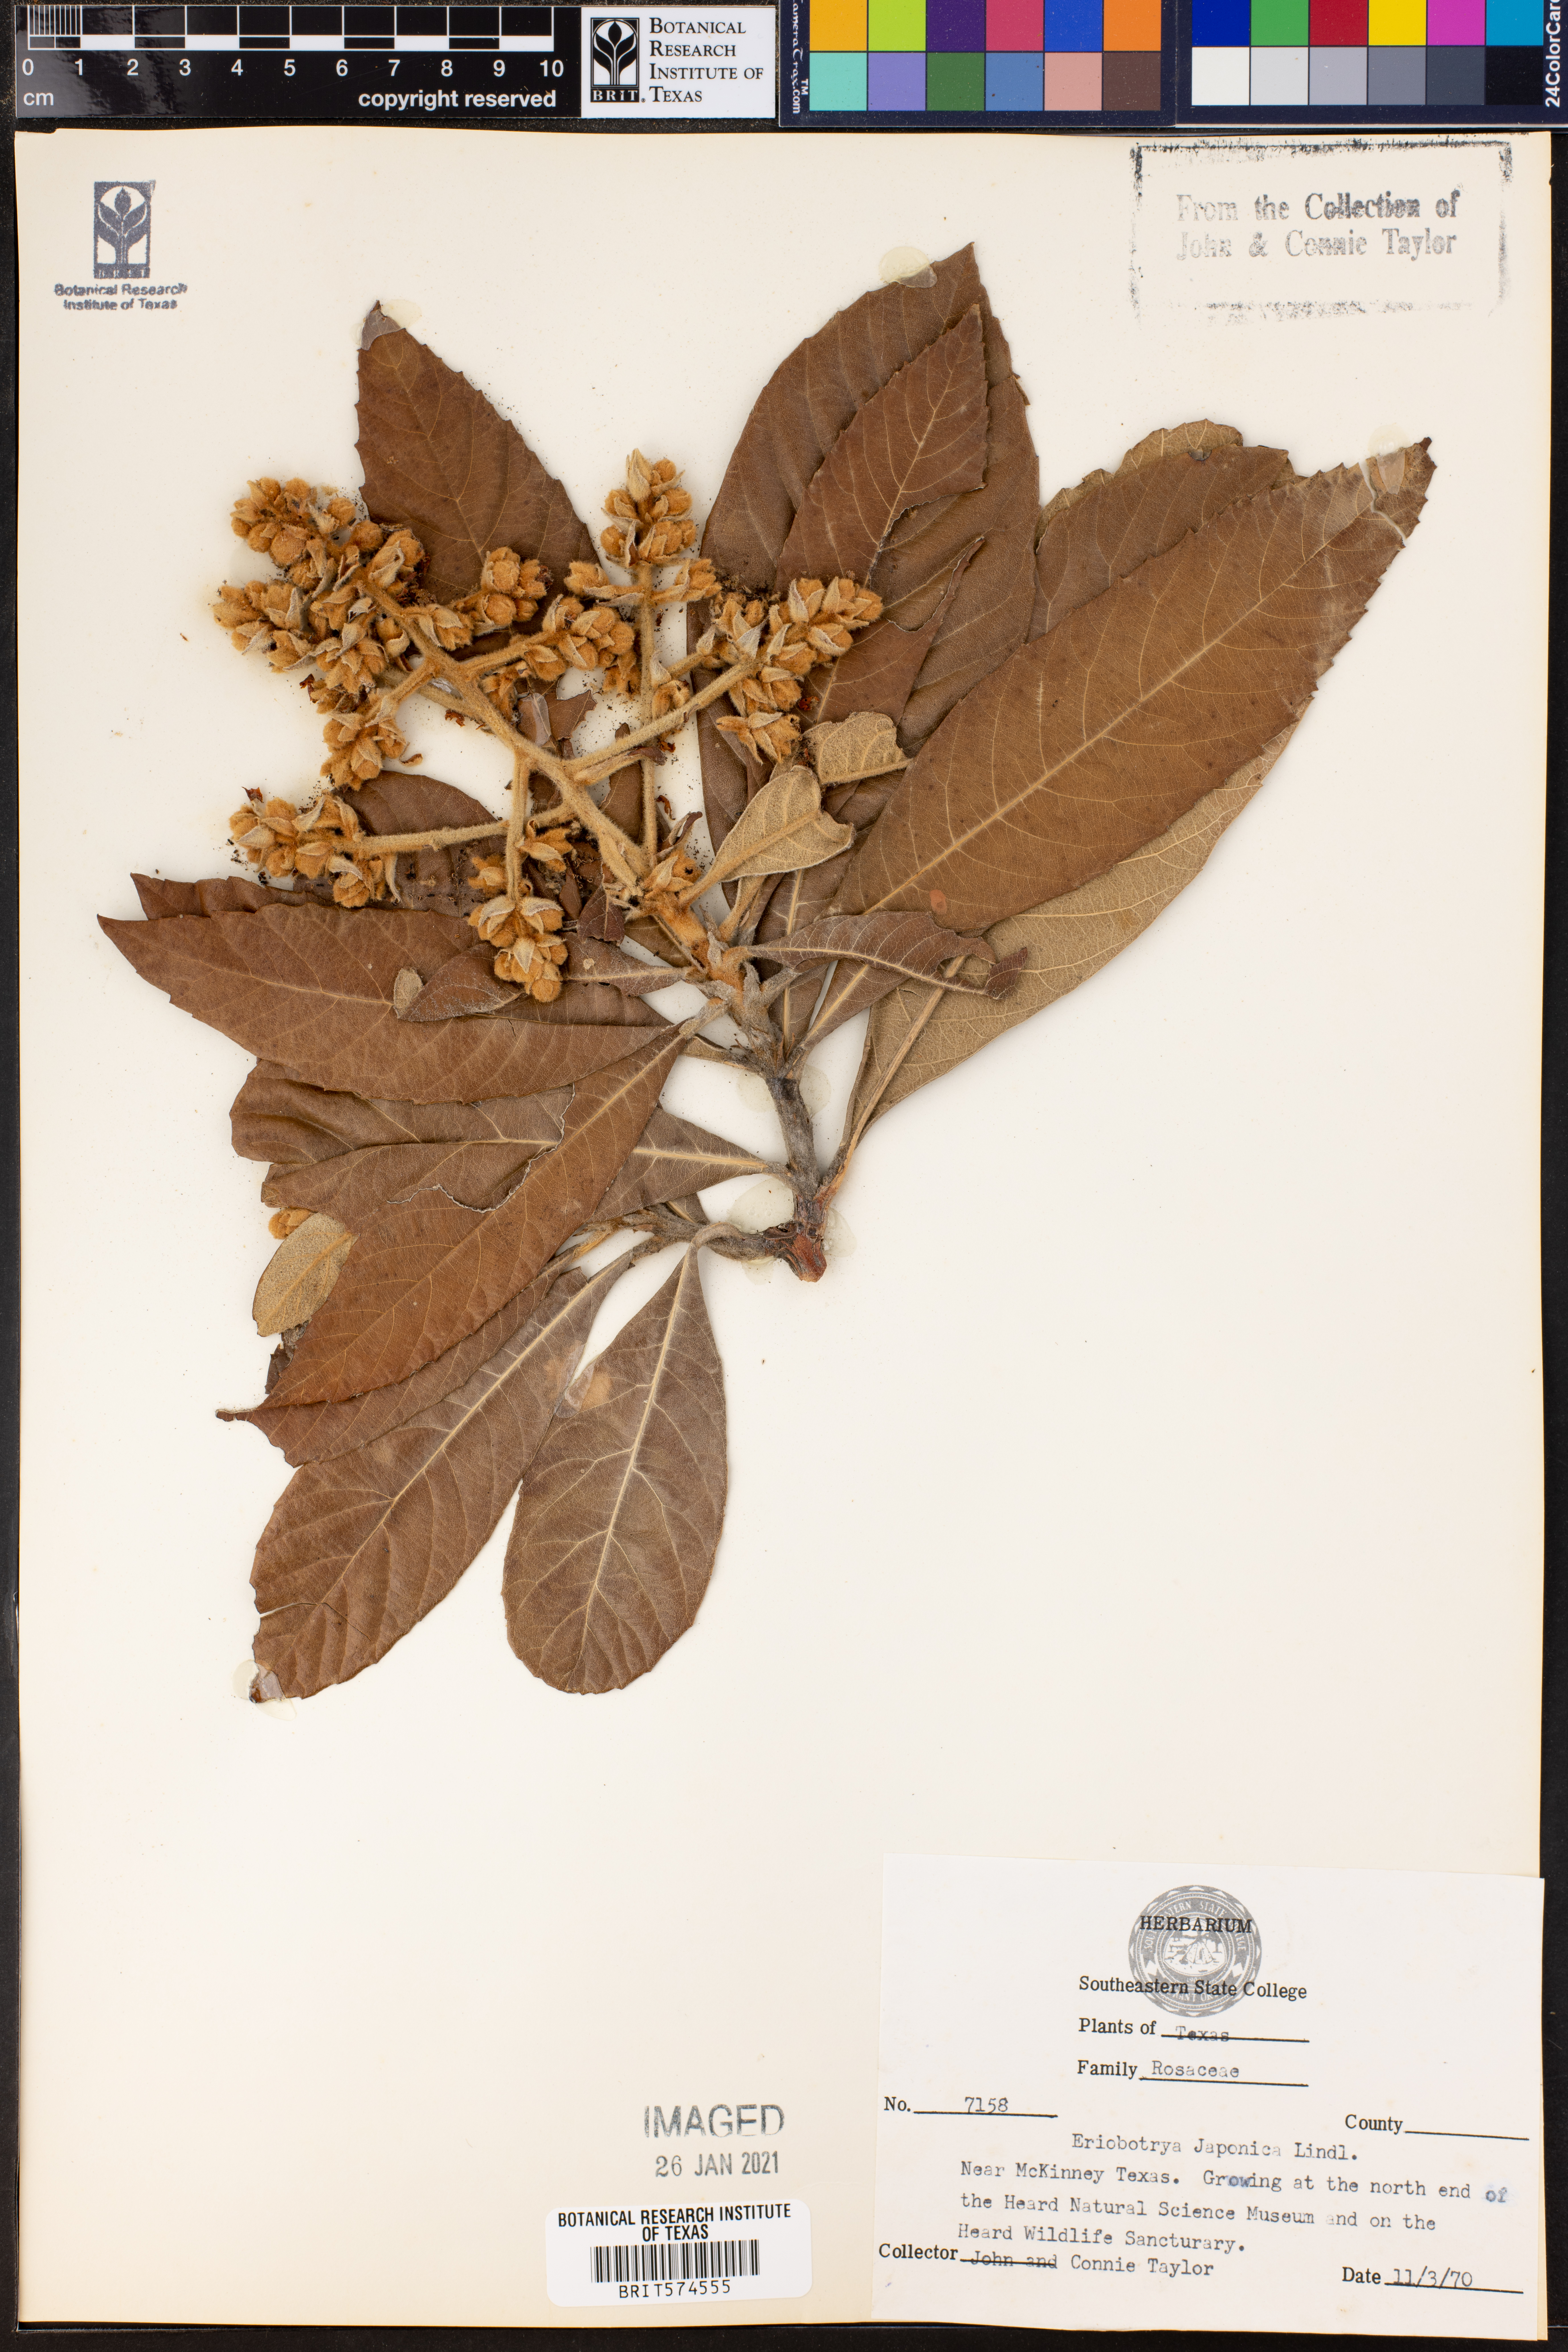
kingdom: Plantae
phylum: Tracheophyta
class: Magnoliopsida
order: Rosales
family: Rosaceae
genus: Rhaphiolepis
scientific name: Rhaphiolepis bibas
